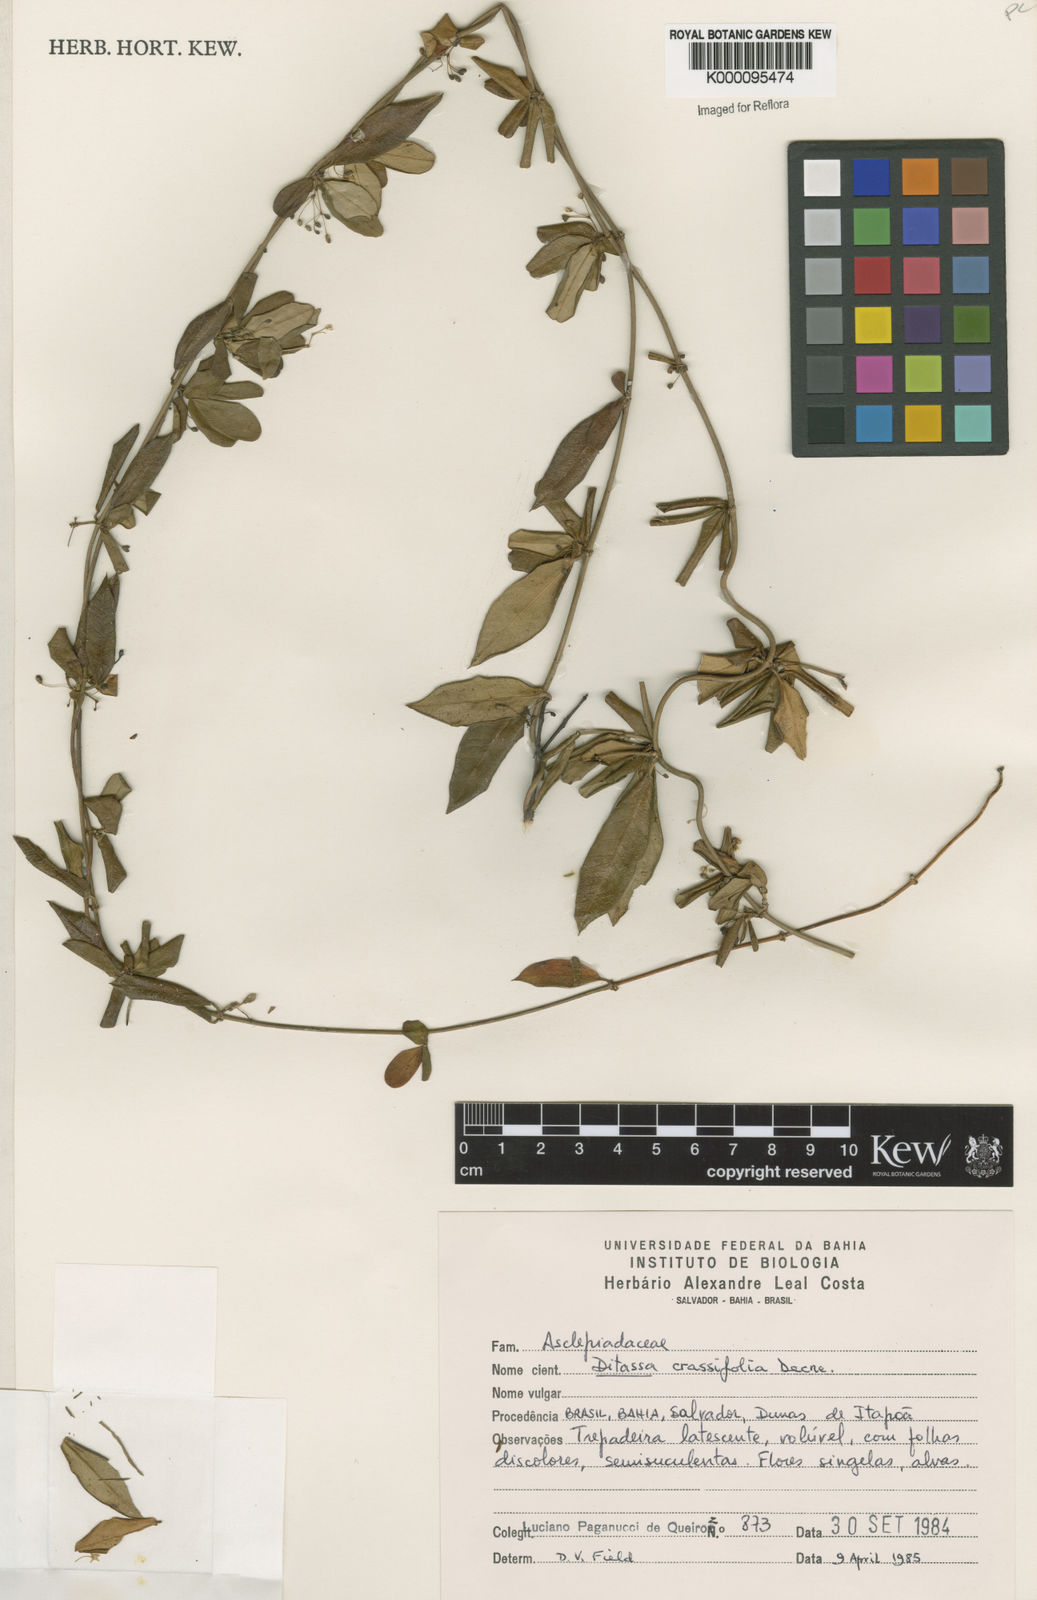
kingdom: Plantae
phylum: Tracheophyta
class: Magnoliopsida
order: Gentianales
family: Apocynaceae
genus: Ditassa
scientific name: Ditassa crassifolia
